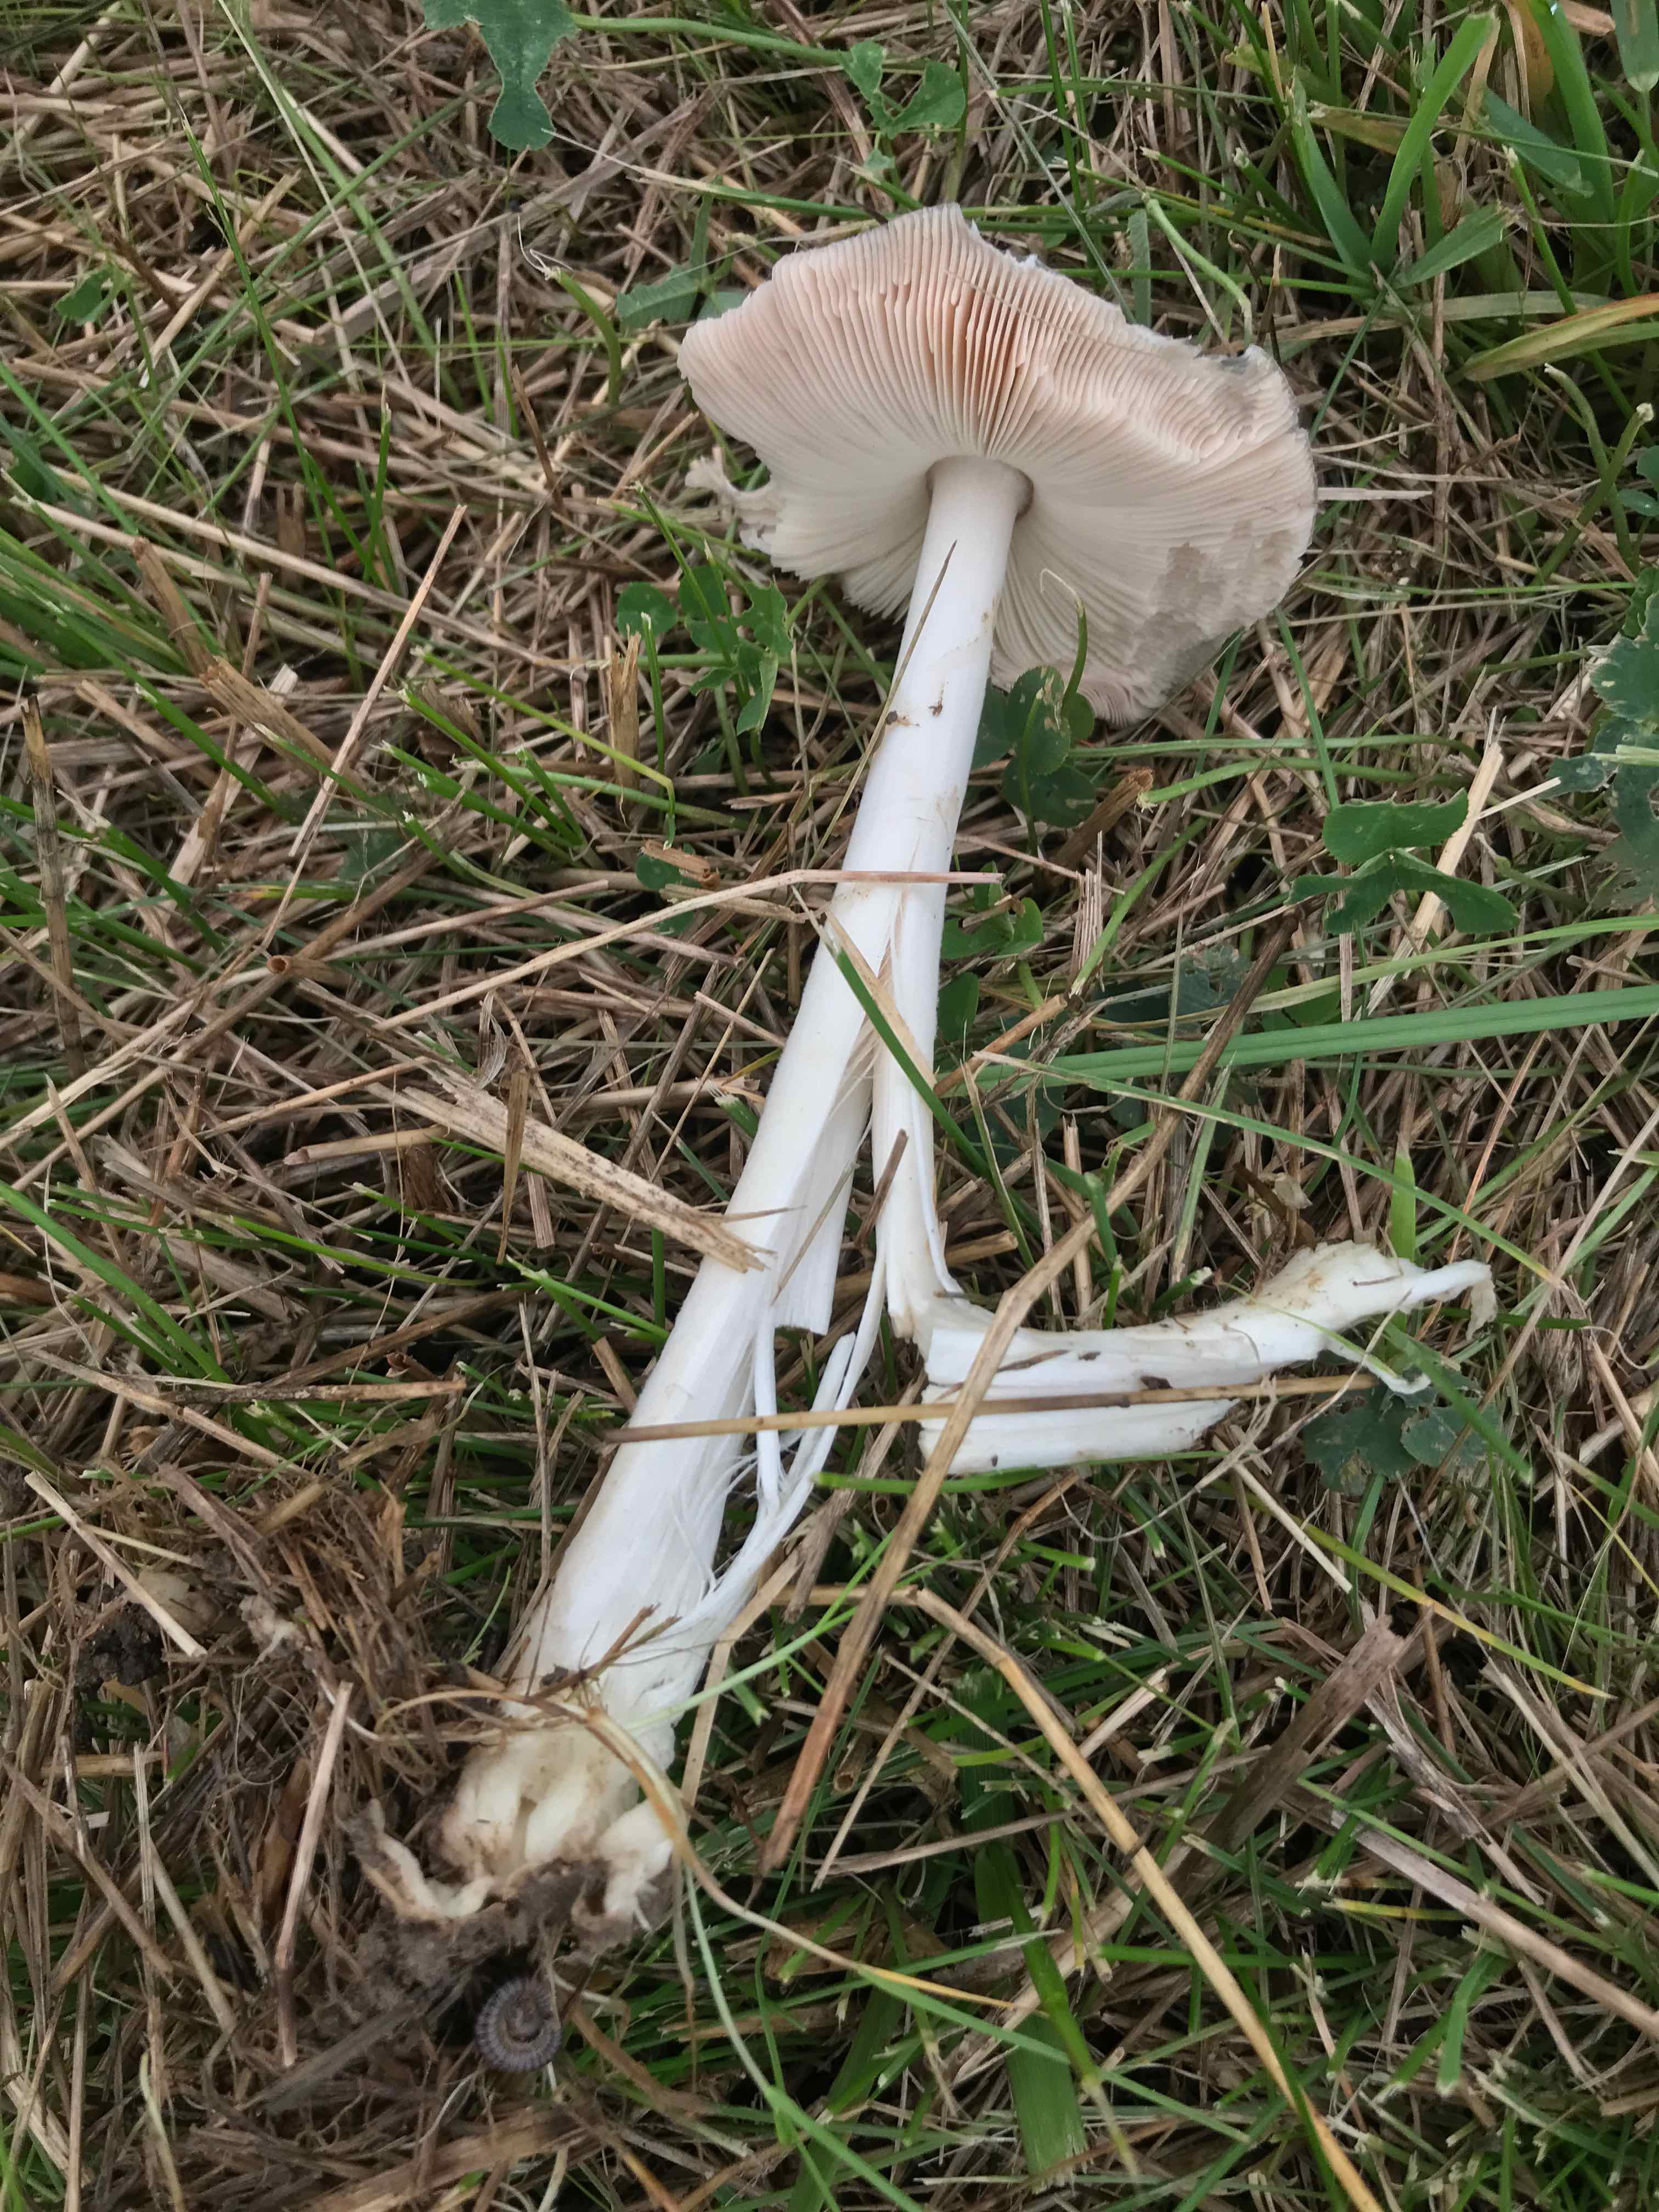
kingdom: Fungi
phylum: Basidiomycota
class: Agaricomycetes
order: Agaricales
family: Pluteaceae
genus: Volvopluteus
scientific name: Volvopluteus gloiocephalus
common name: høj posesvamp
